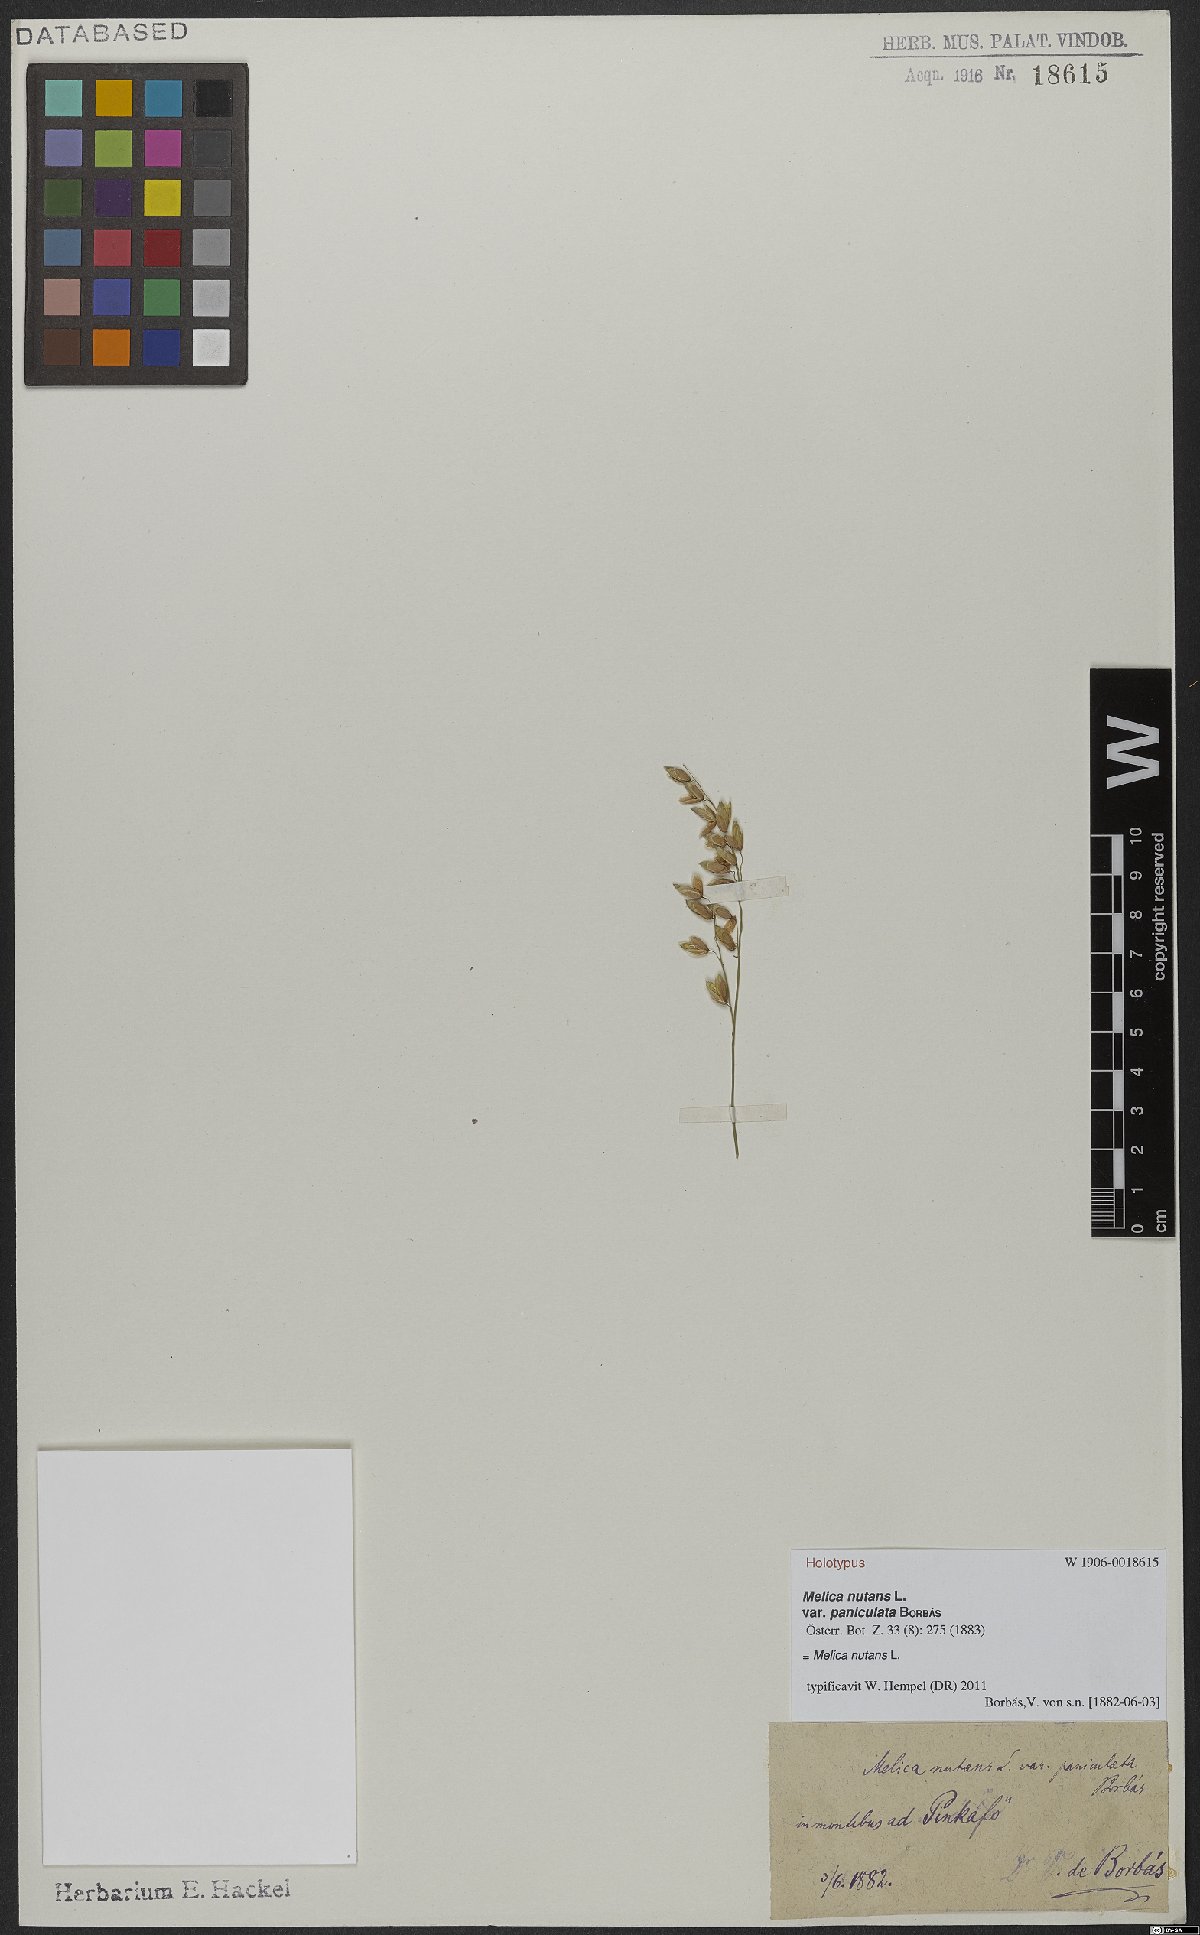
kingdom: Plantae
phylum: Tracheophyta
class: Liliopsida
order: Poales
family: Poaceae
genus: Melica
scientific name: Melica nutans
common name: Mountain melick
